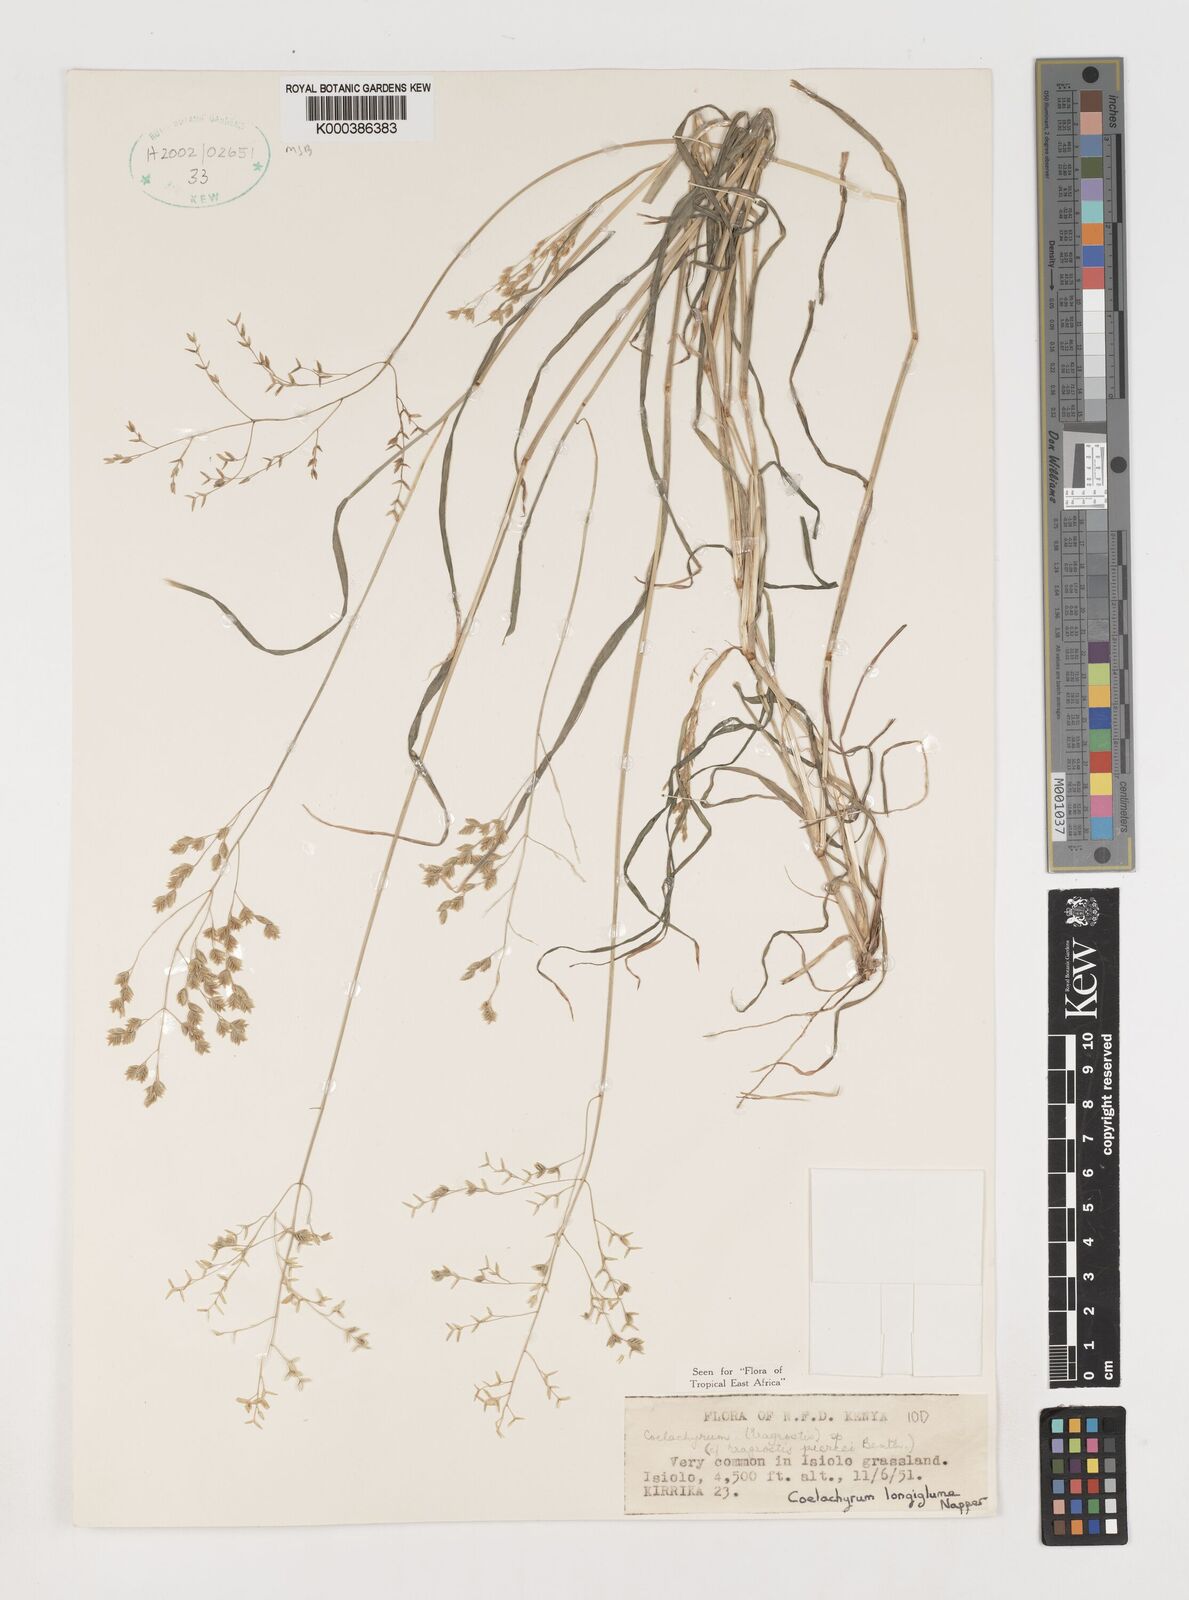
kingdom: Plantae
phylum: Tracheophyta
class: Liliopsida
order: Poales
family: Poaceae
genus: Coelachyrum
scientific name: Coelachyrum longiglume
